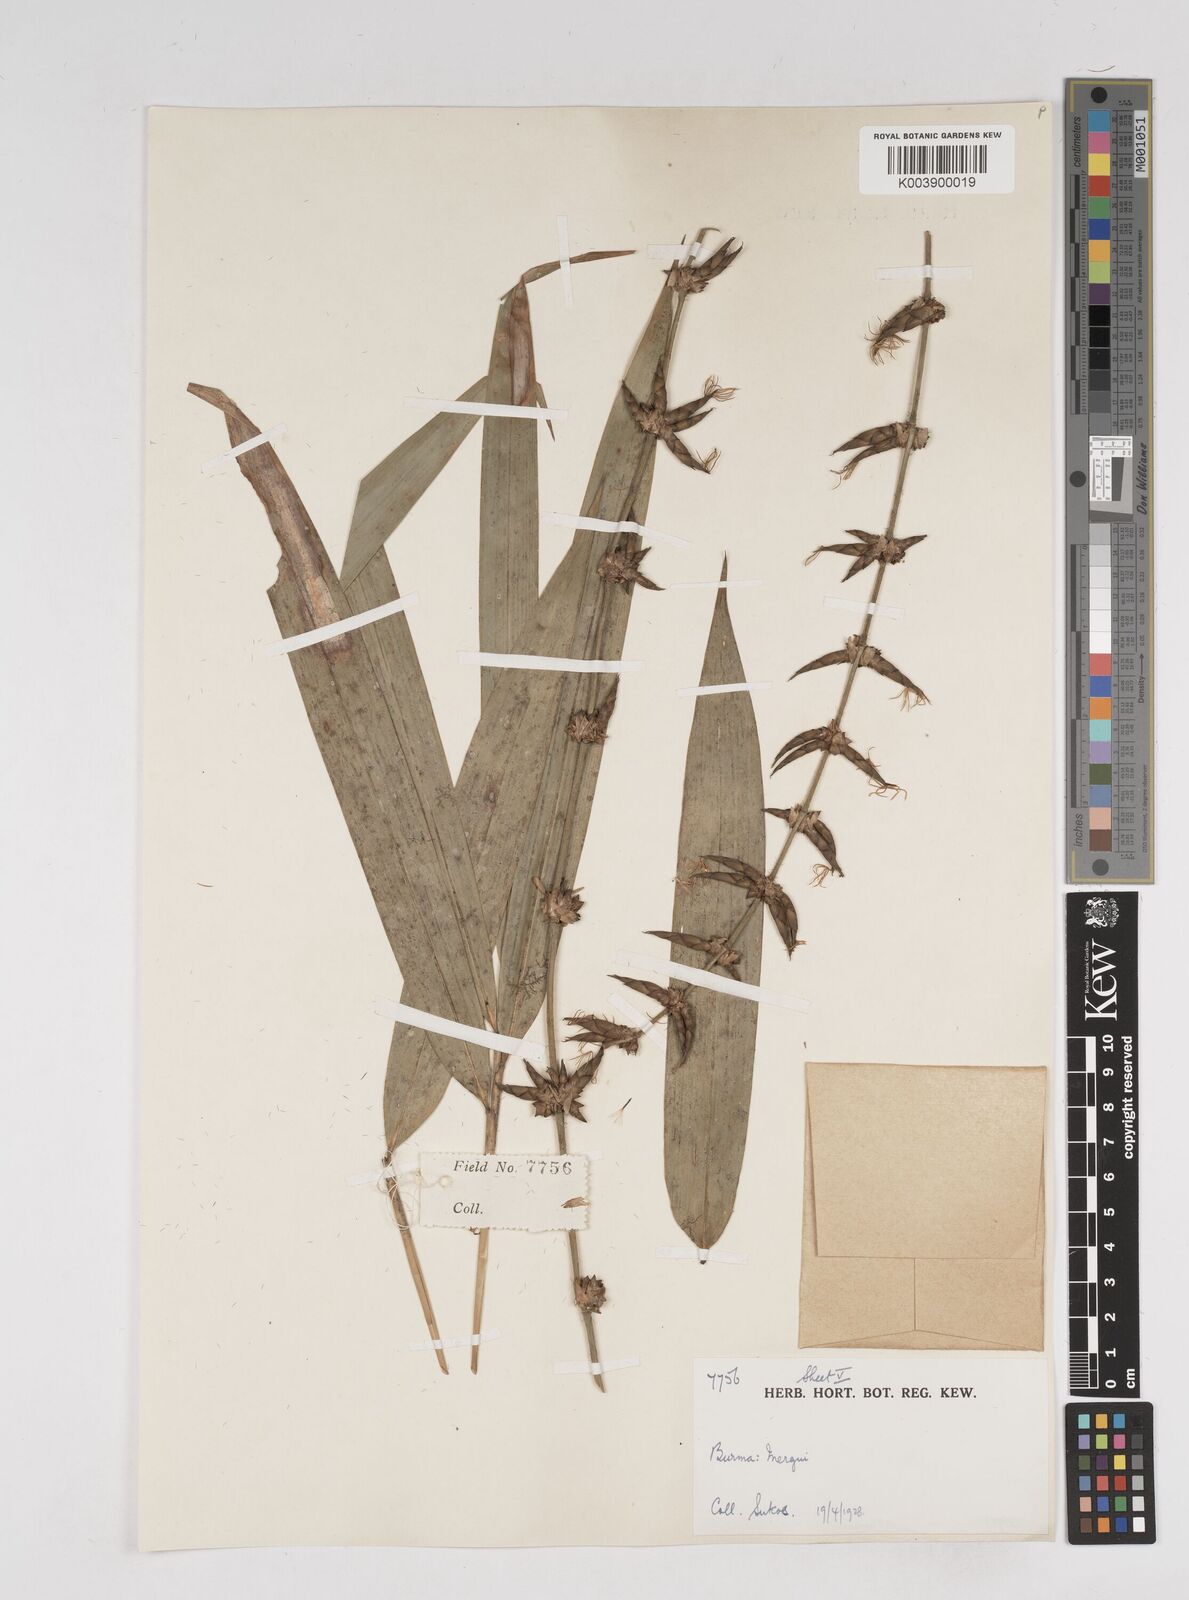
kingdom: Plantae
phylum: Tracheophyta
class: Liliopsida
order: Poales
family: Poaceae
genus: Gigantochloa
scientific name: Gigantochloa
